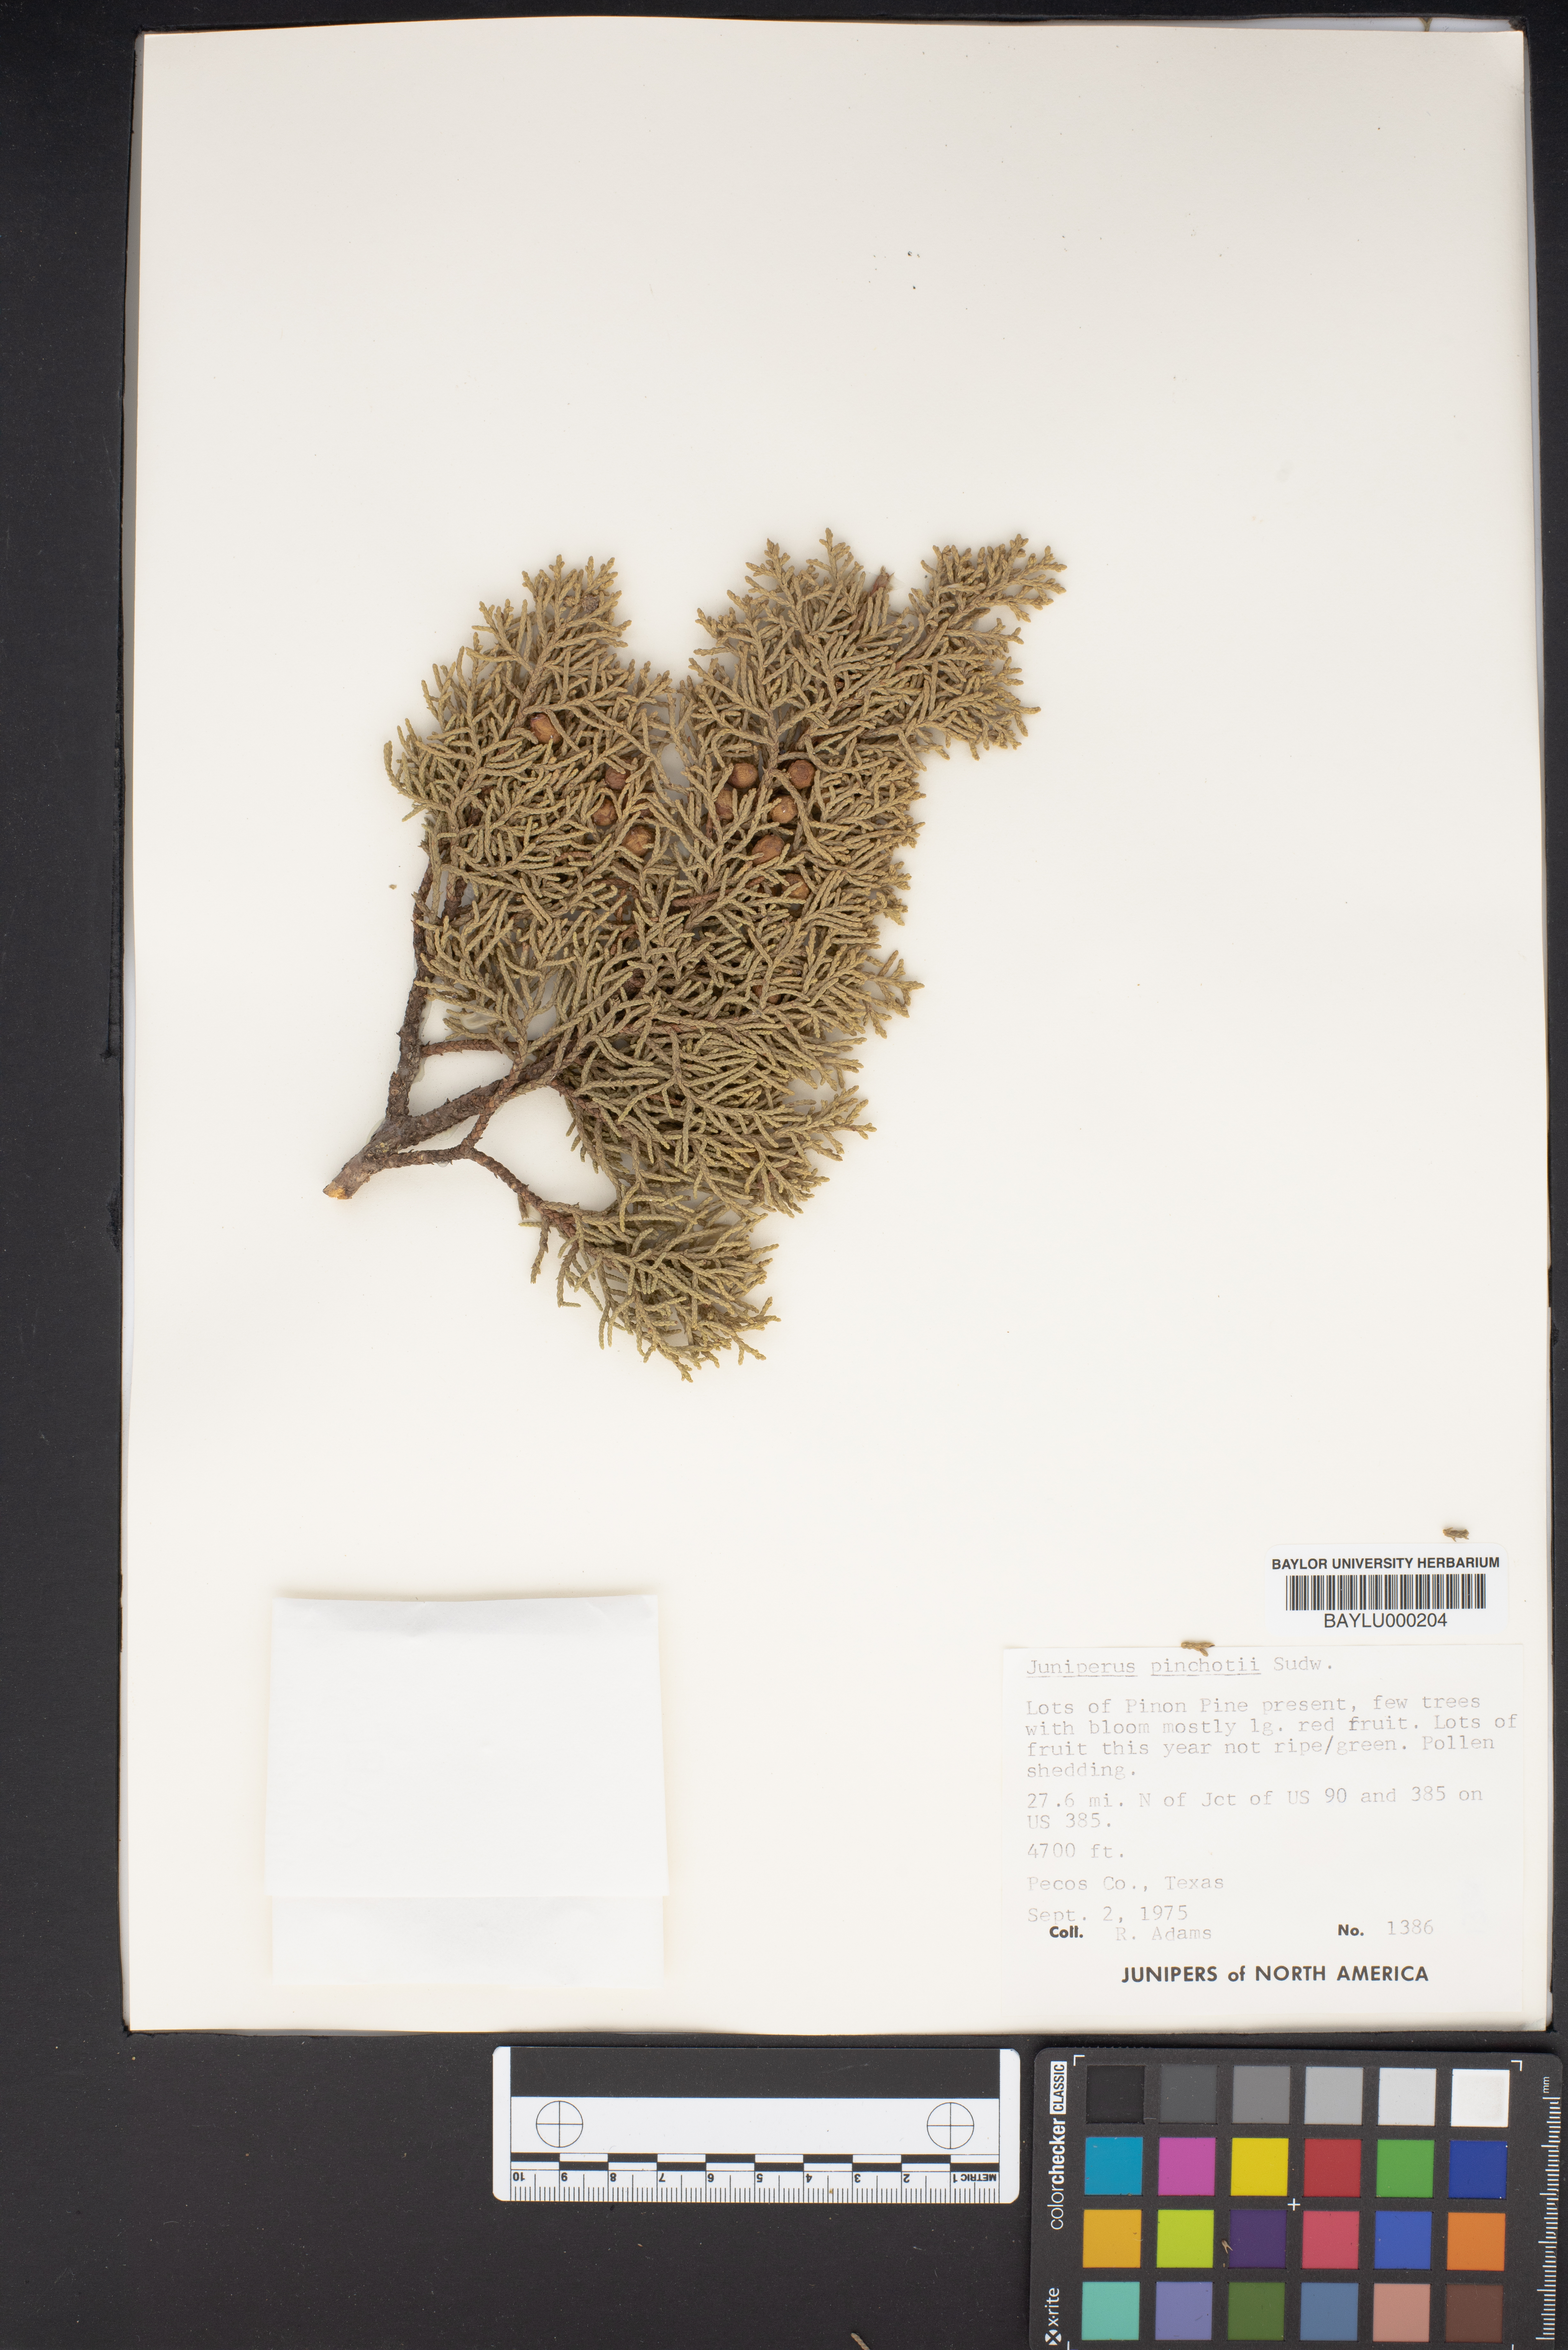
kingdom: Plantae
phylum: Tracheophyta
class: Pinopsida
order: Pinales
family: Cupressaceae
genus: Juniperus
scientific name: Juniperus pinchotii
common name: Pinchot juniper
